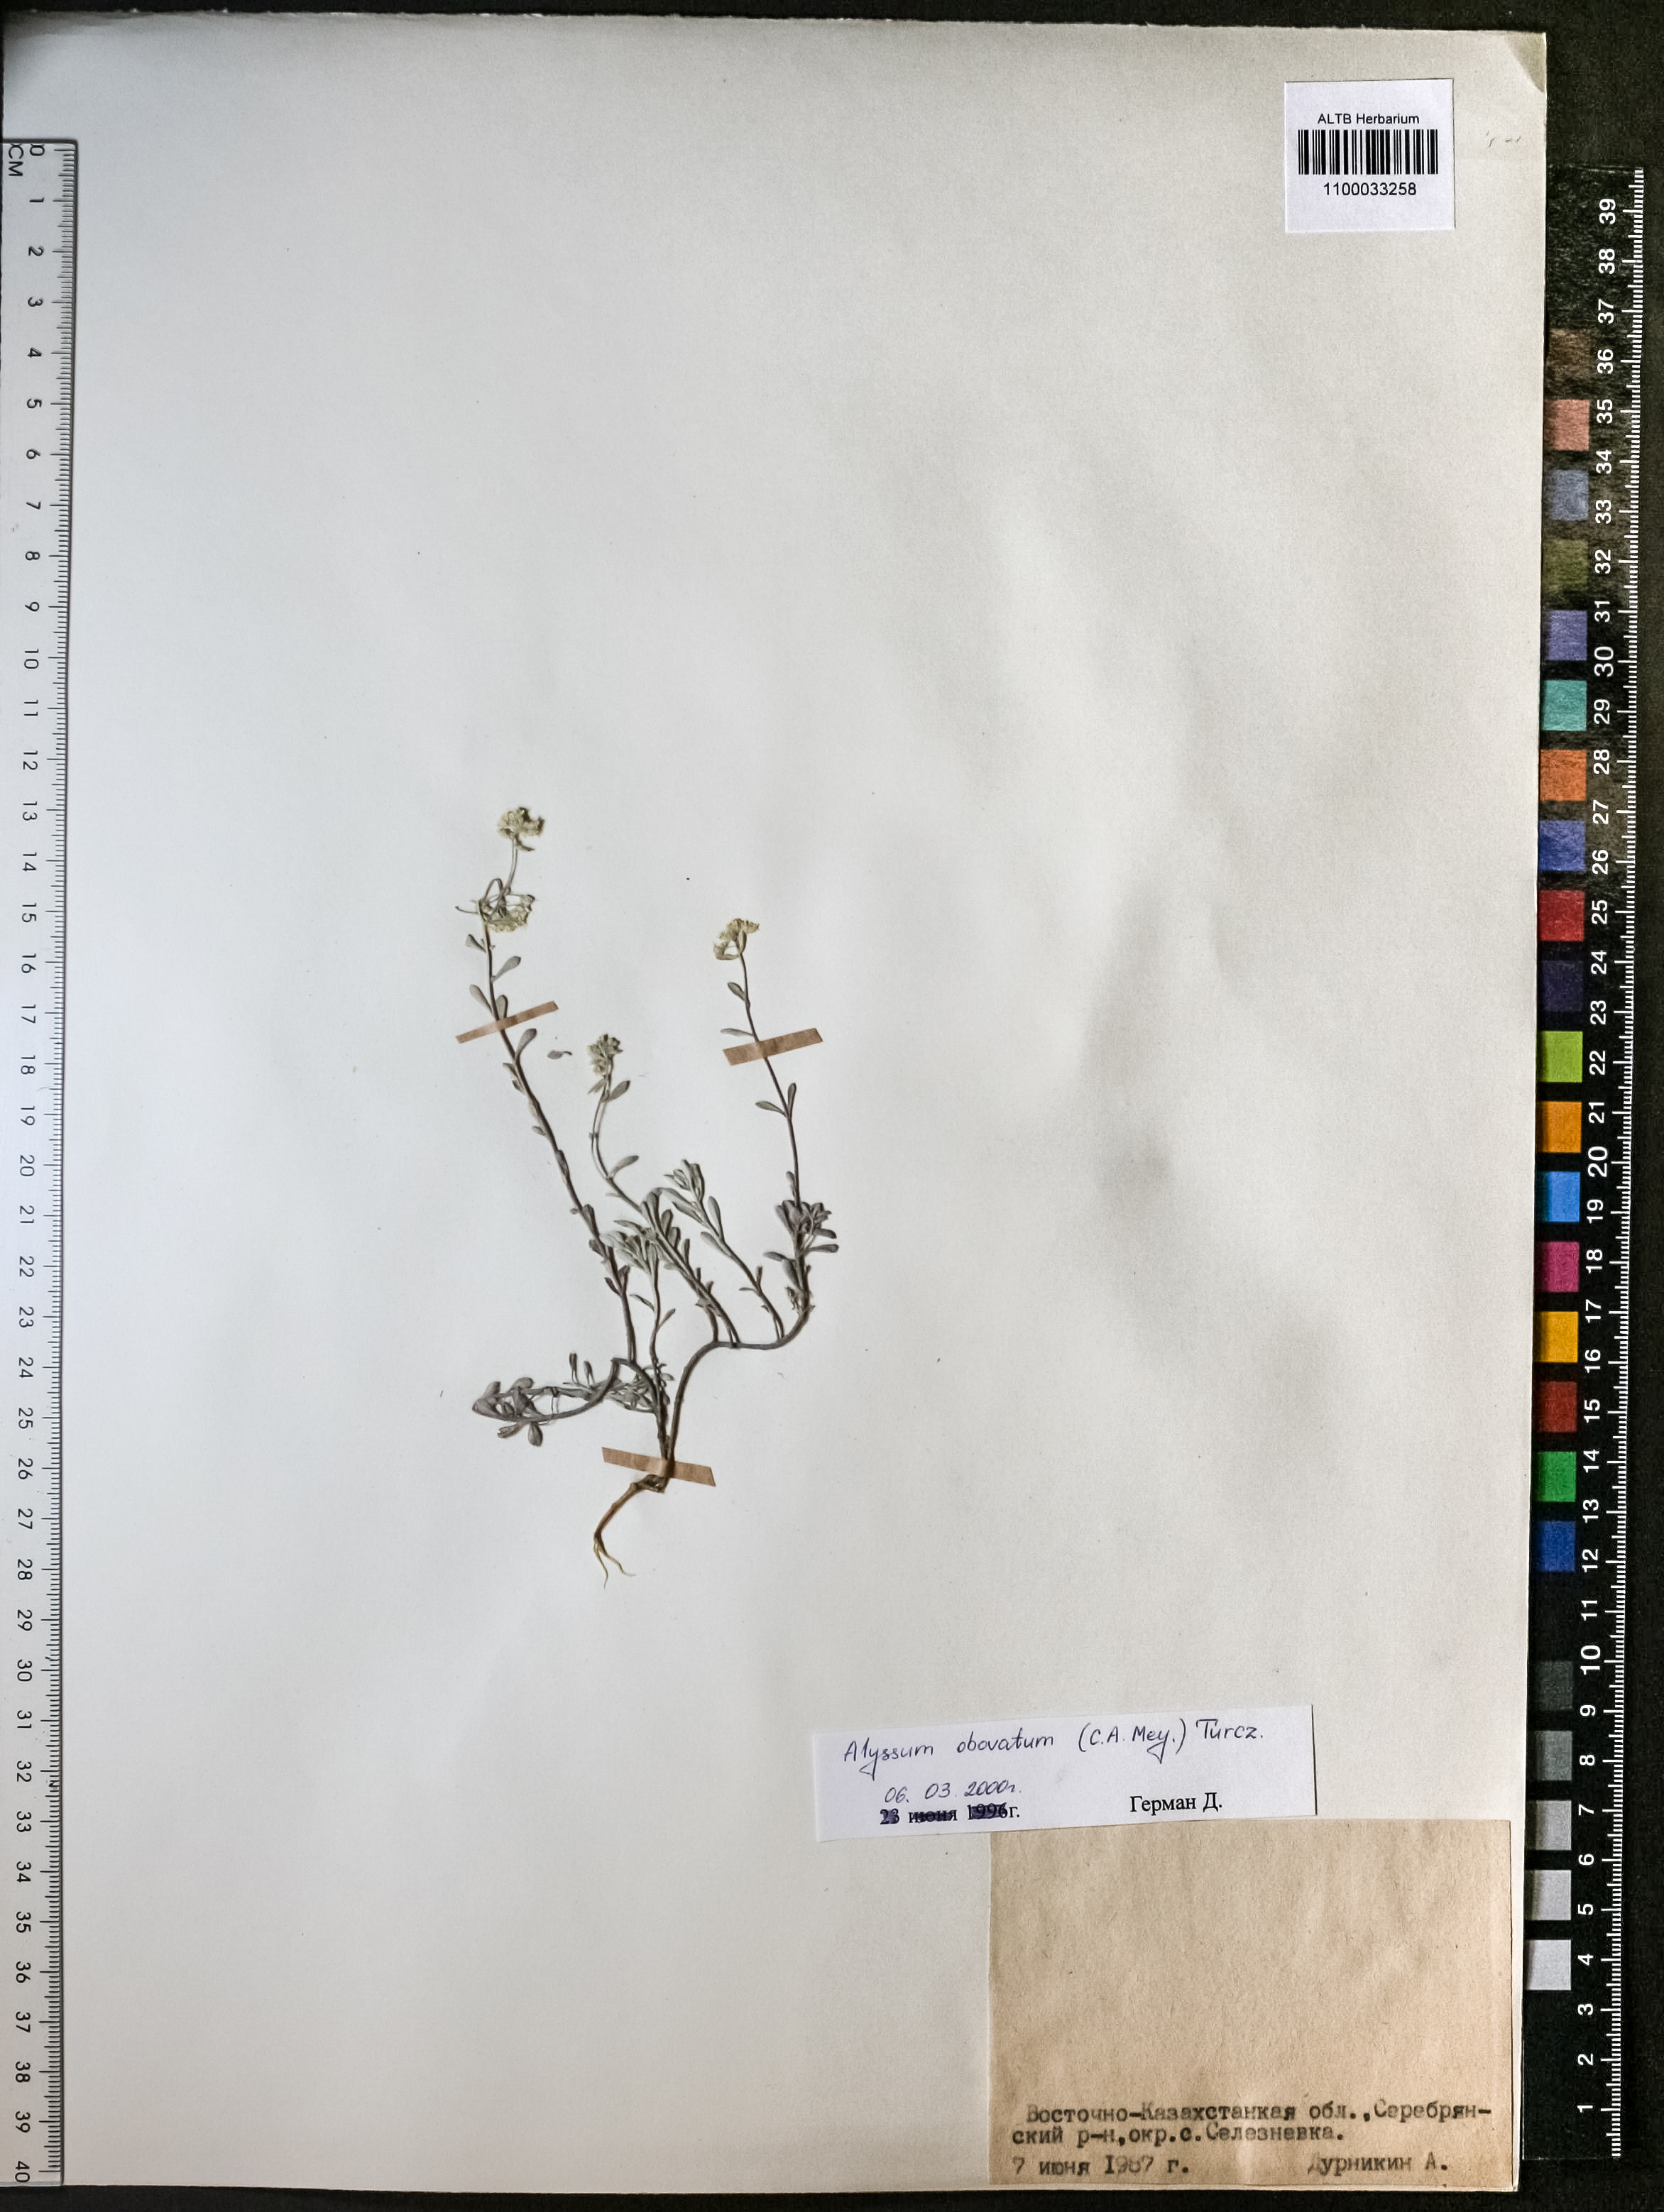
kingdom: Plantae
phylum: Tracheophyta
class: Magnoliopsida
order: Brassicales
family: Brassicaceae
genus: Odontarrhena
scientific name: Odontarrhena obovata
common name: American alyssum
